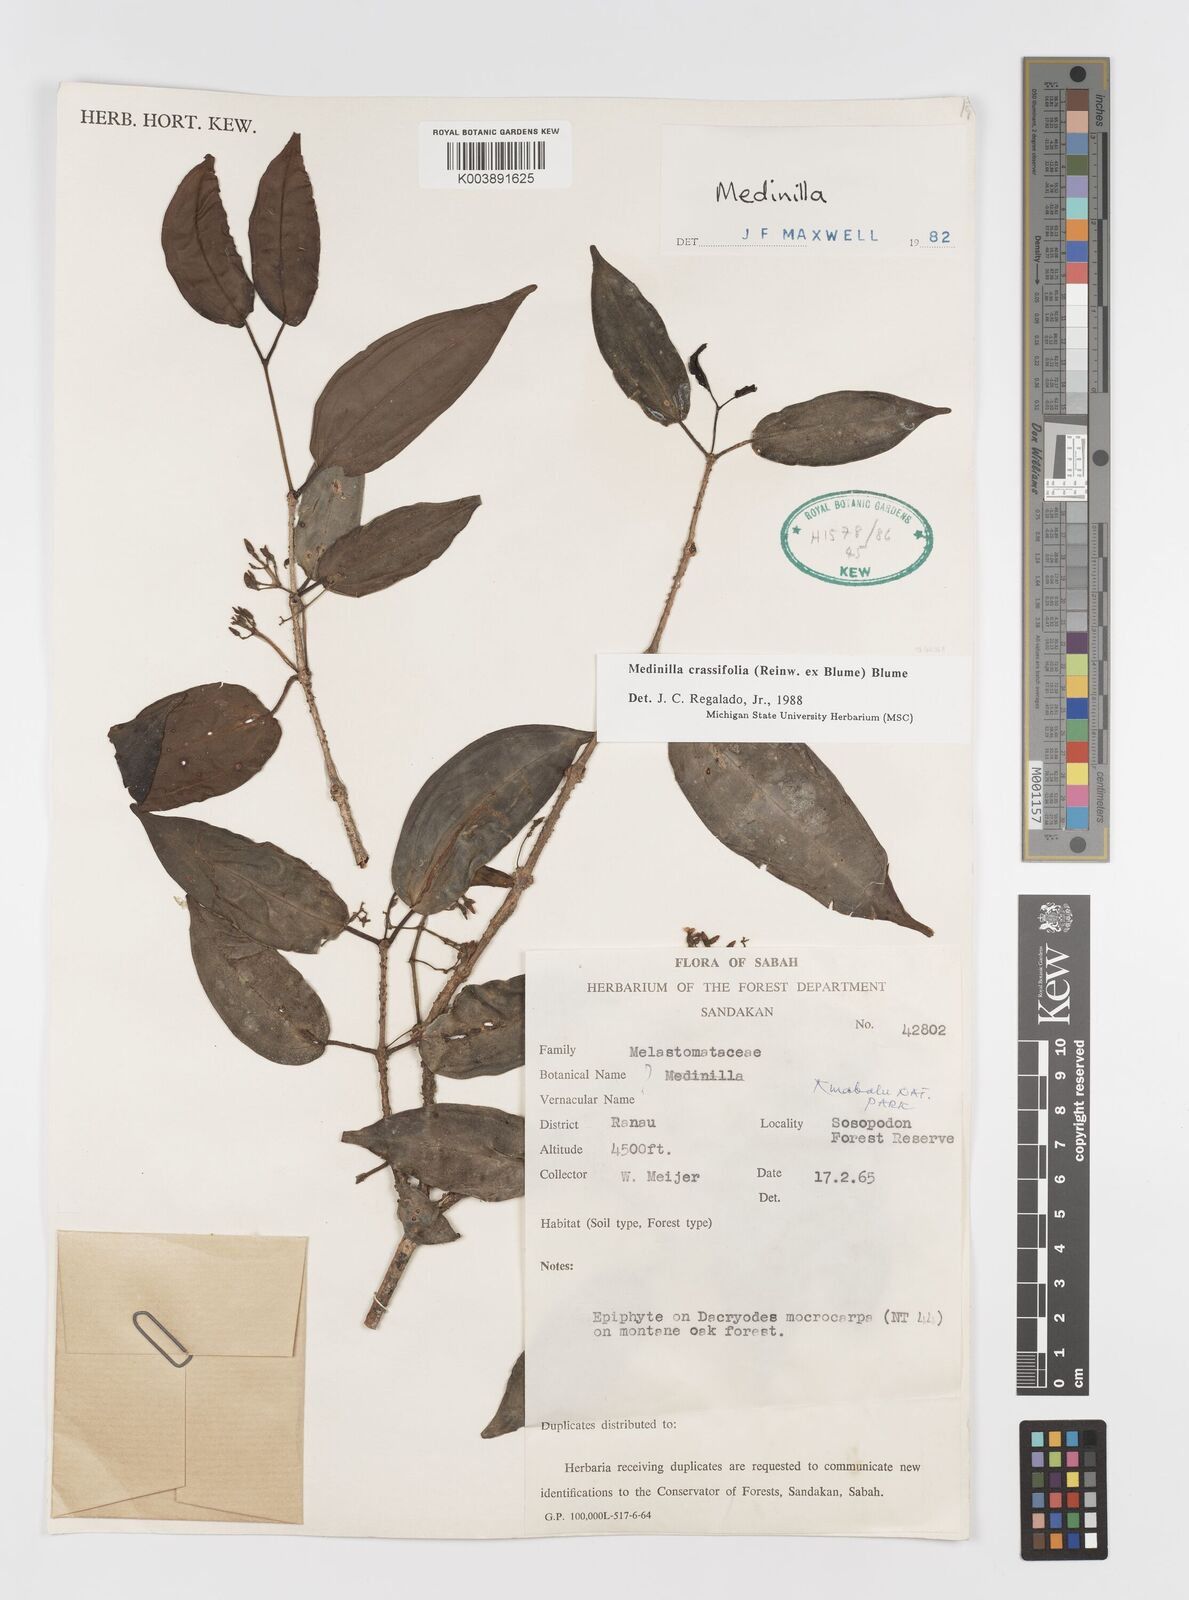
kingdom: Plantae
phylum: Tracheophyta
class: Magnoliopsida
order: Myrtales
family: Melastomataceae
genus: Medinilla
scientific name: Medinilla crassifolia
